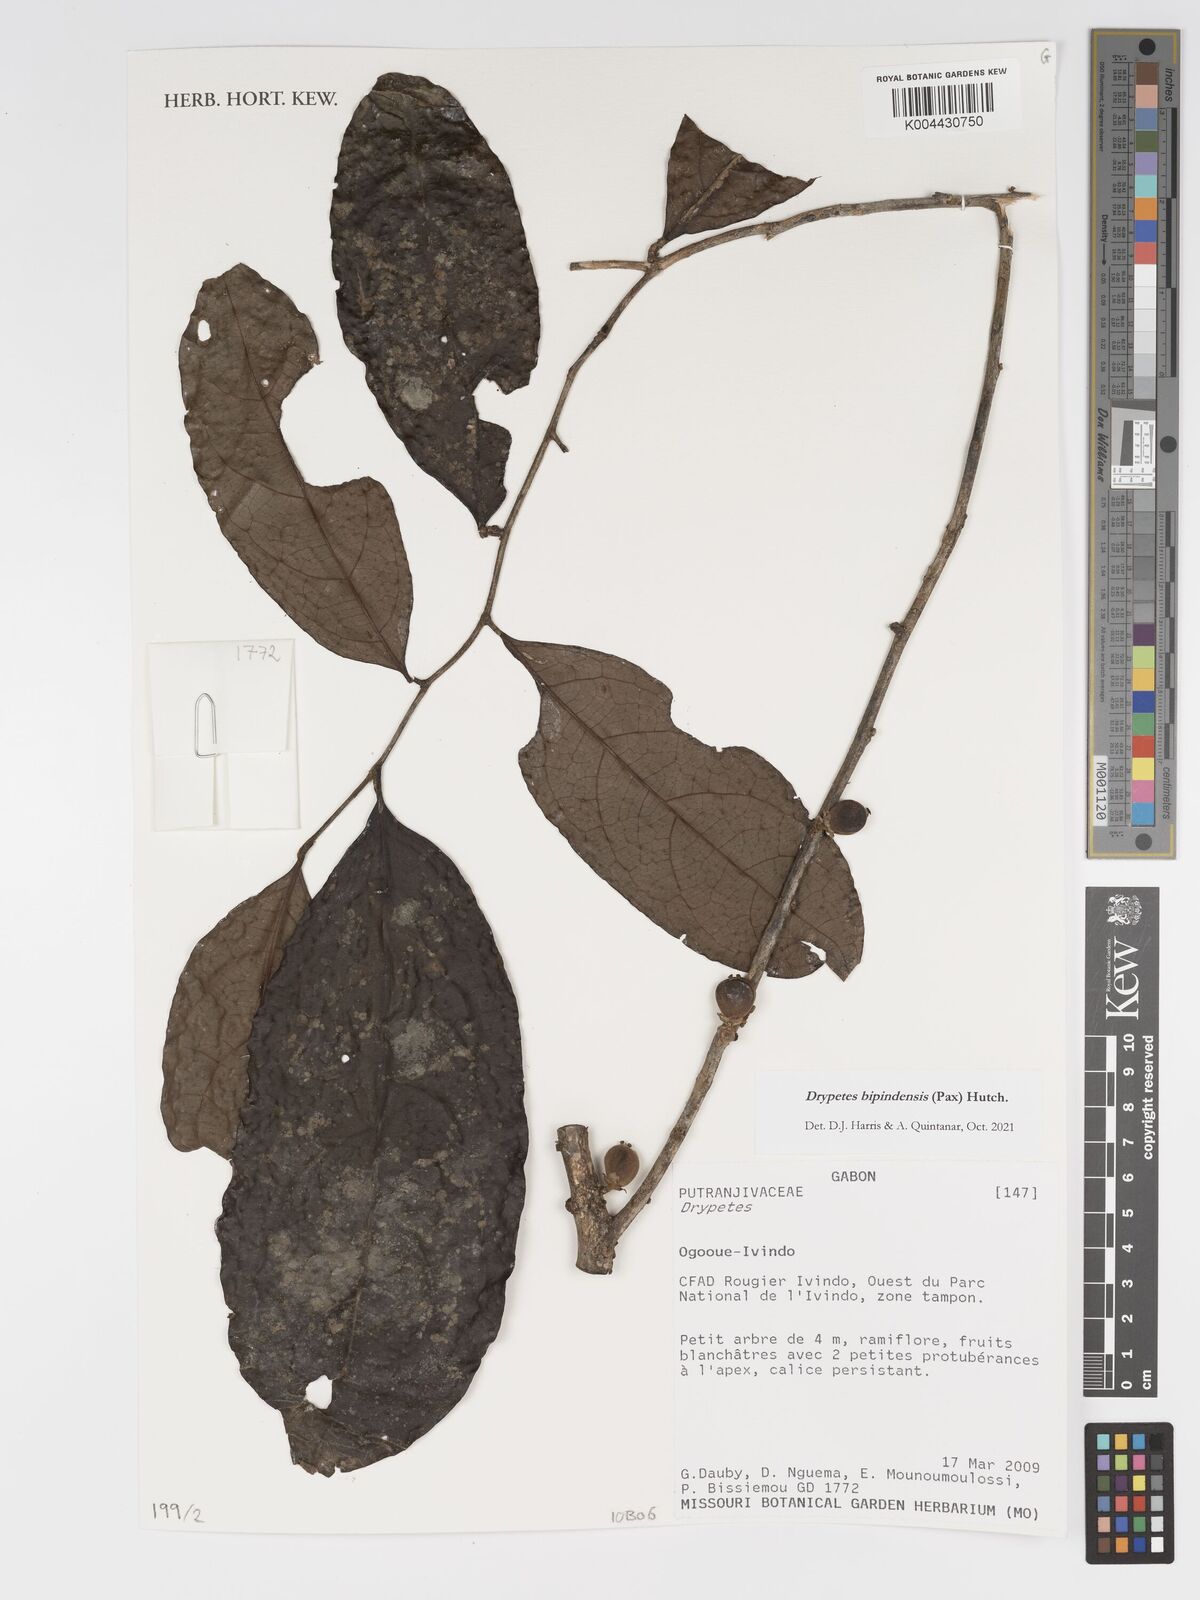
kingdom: Plantae
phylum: Tracheophyta
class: Magnoliopsida
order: Malpighiales
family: Putranjivaceae
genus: Drypetes
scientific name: Drypetes bipindensis
